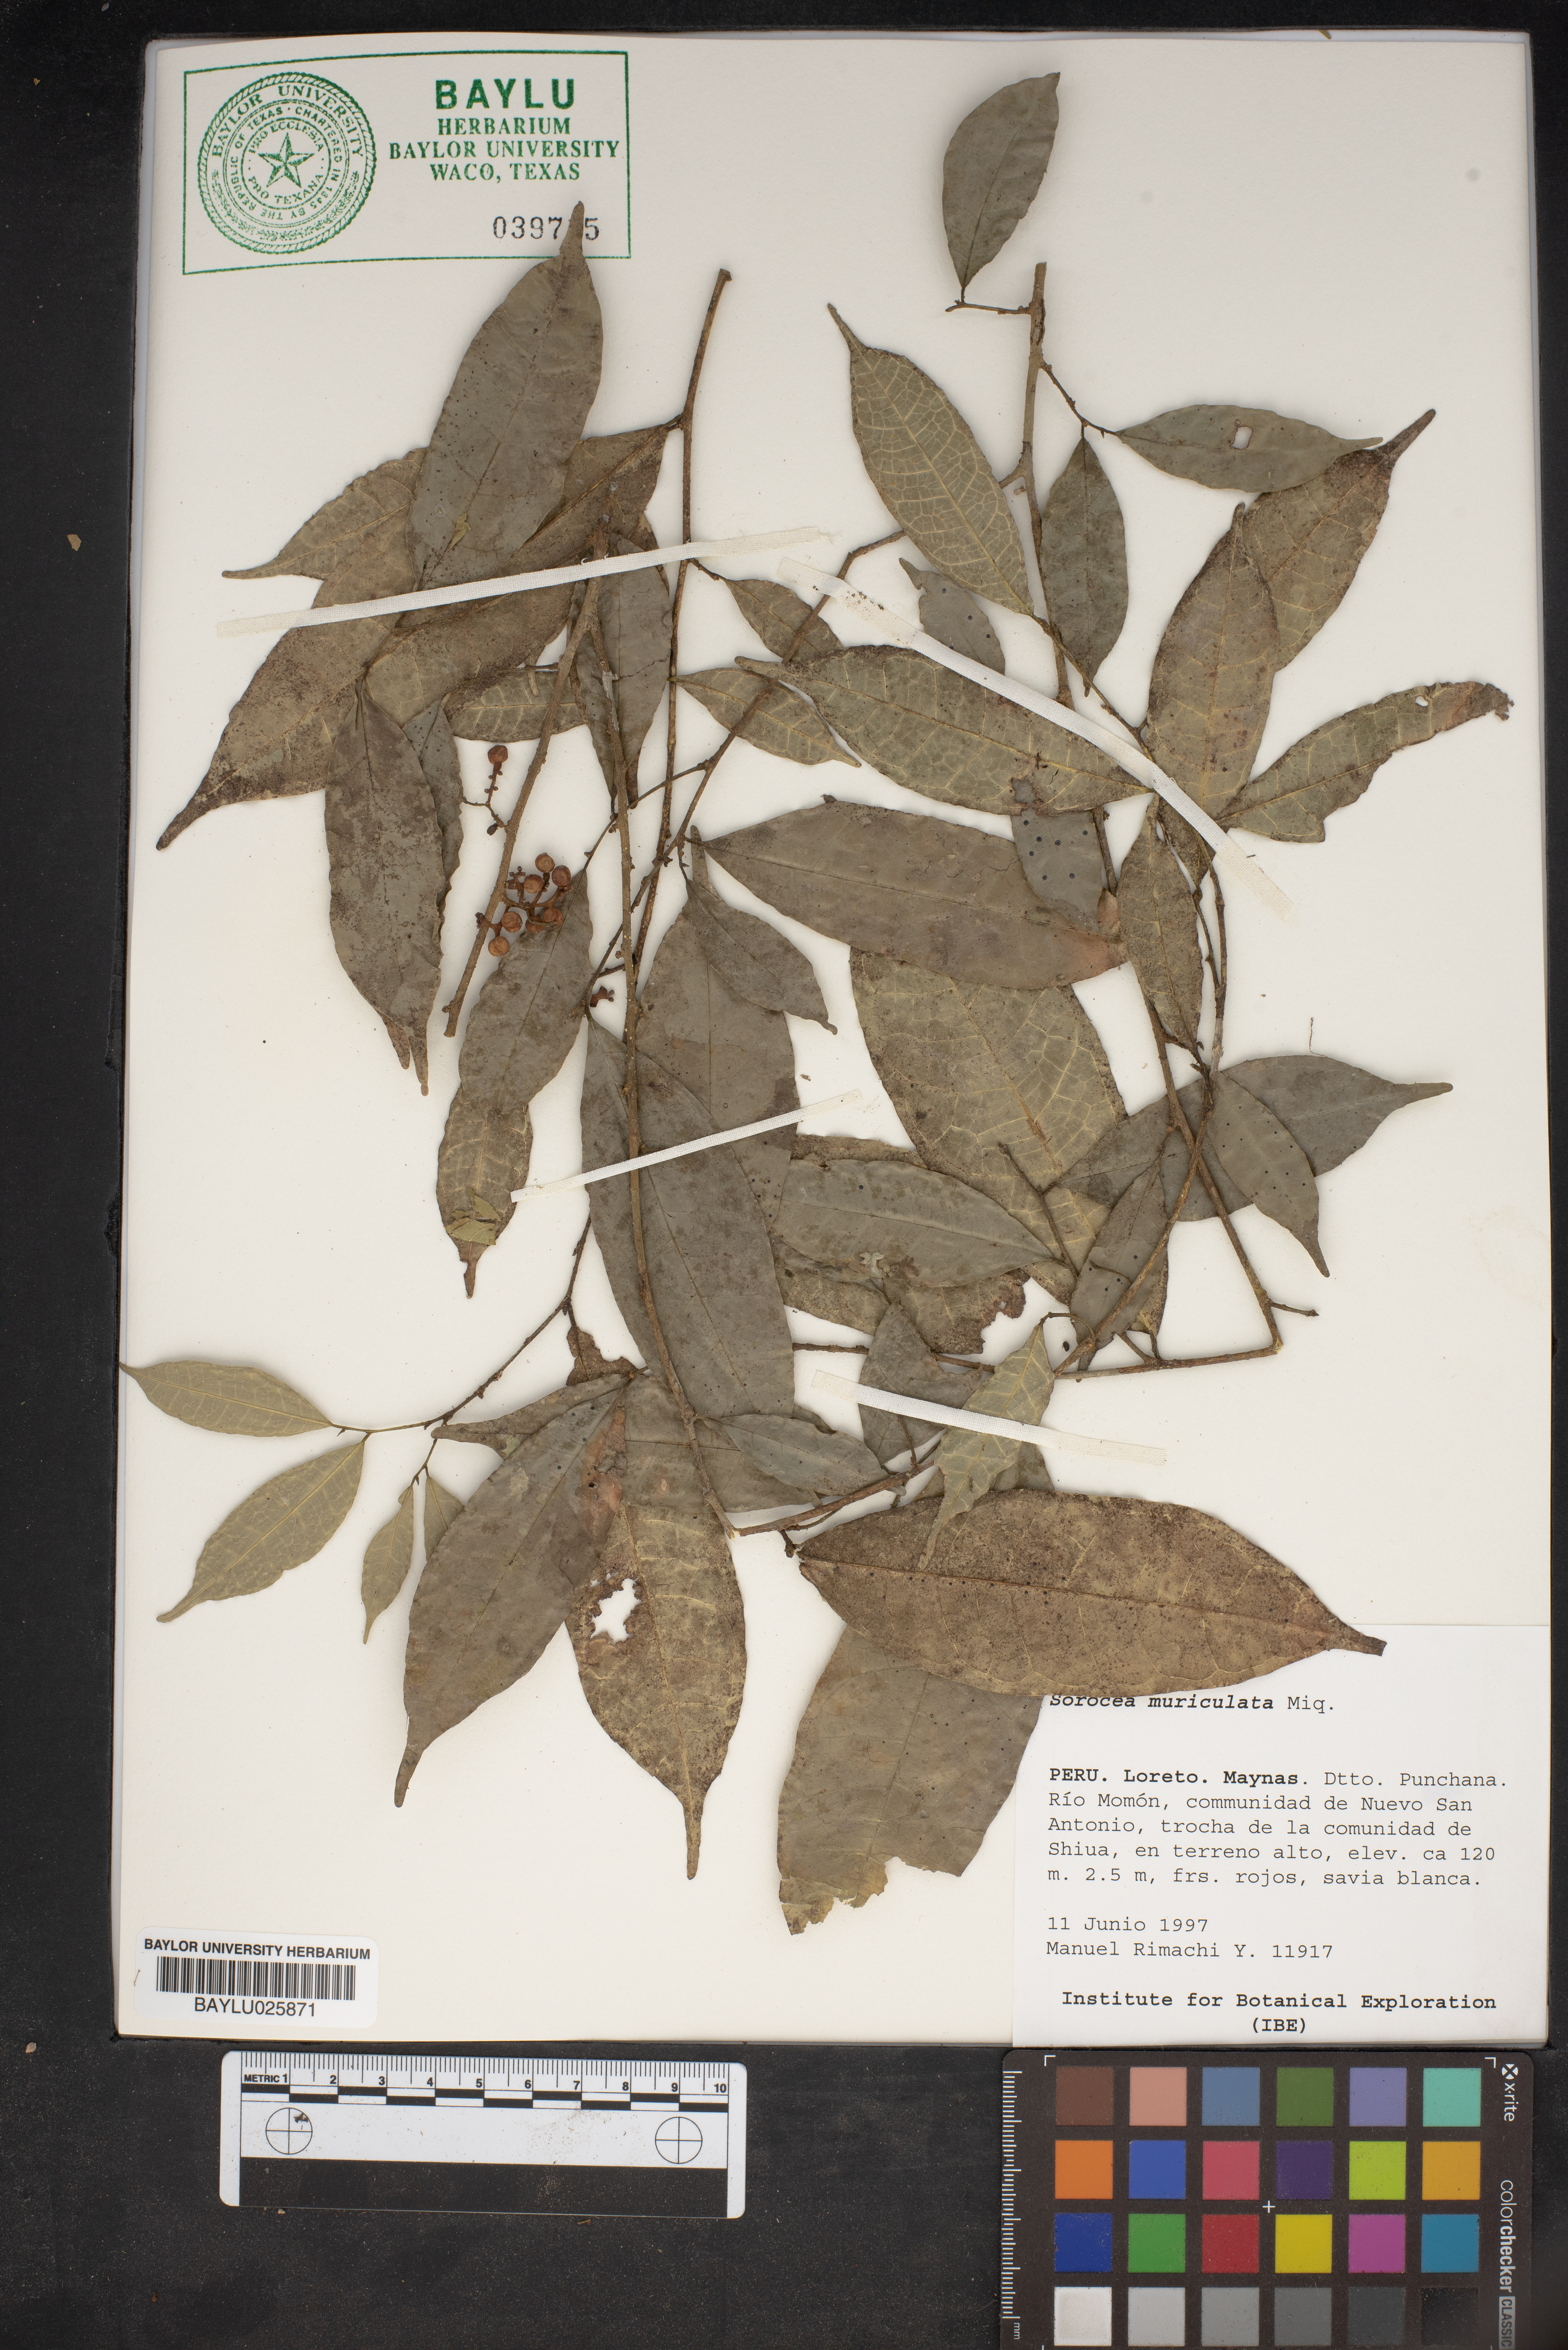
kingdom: Plantae
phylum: Tracheophyta
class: Magnoliopsida
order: Rosales
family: Moraceae
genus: Sorocea
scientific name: Sorocea muriculata
